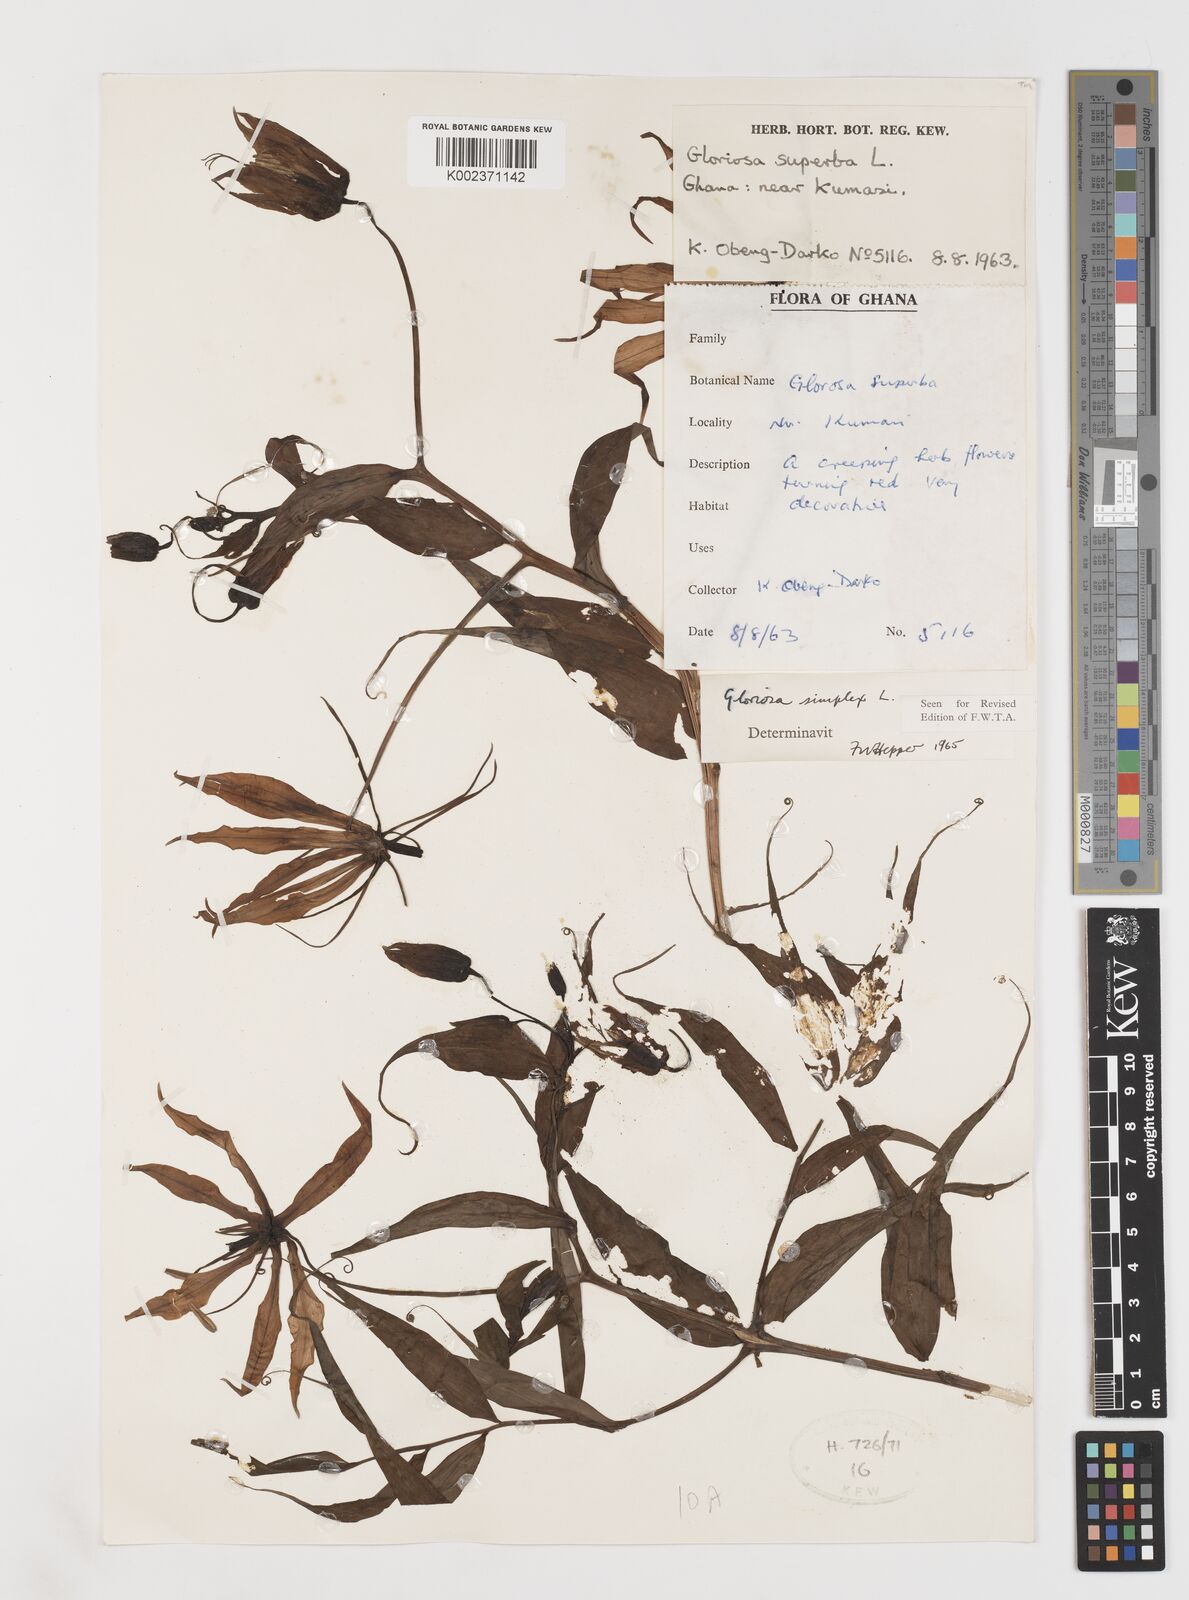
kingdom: Plantae
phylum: Tracheophyta
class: Liliopsida
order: Liliales
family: Colchicaceae
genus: Gloriosa
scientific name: Gloriosa simplex
